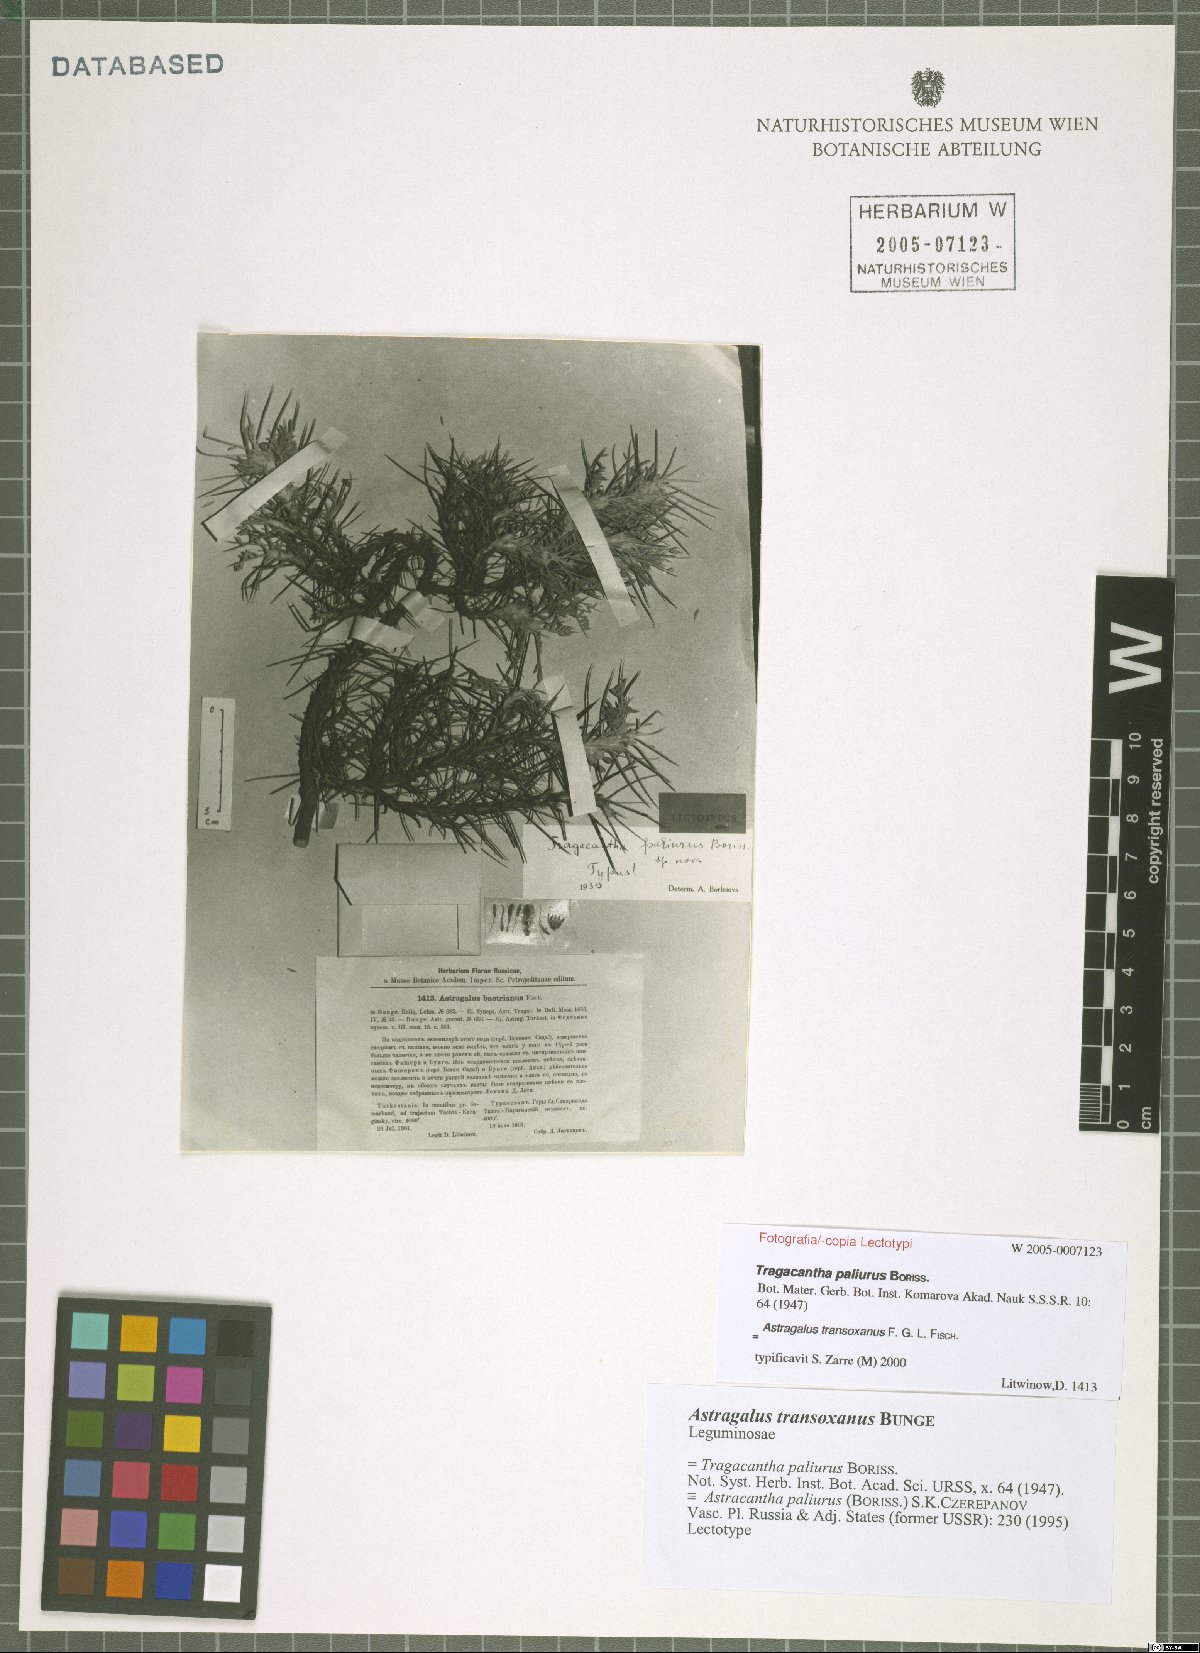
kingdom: Plantae
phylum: Tracheophyta
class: Magnoliopsida
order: Fabales
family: Fabaceae
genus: Astragalus
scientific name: Astragalus transoxanus
